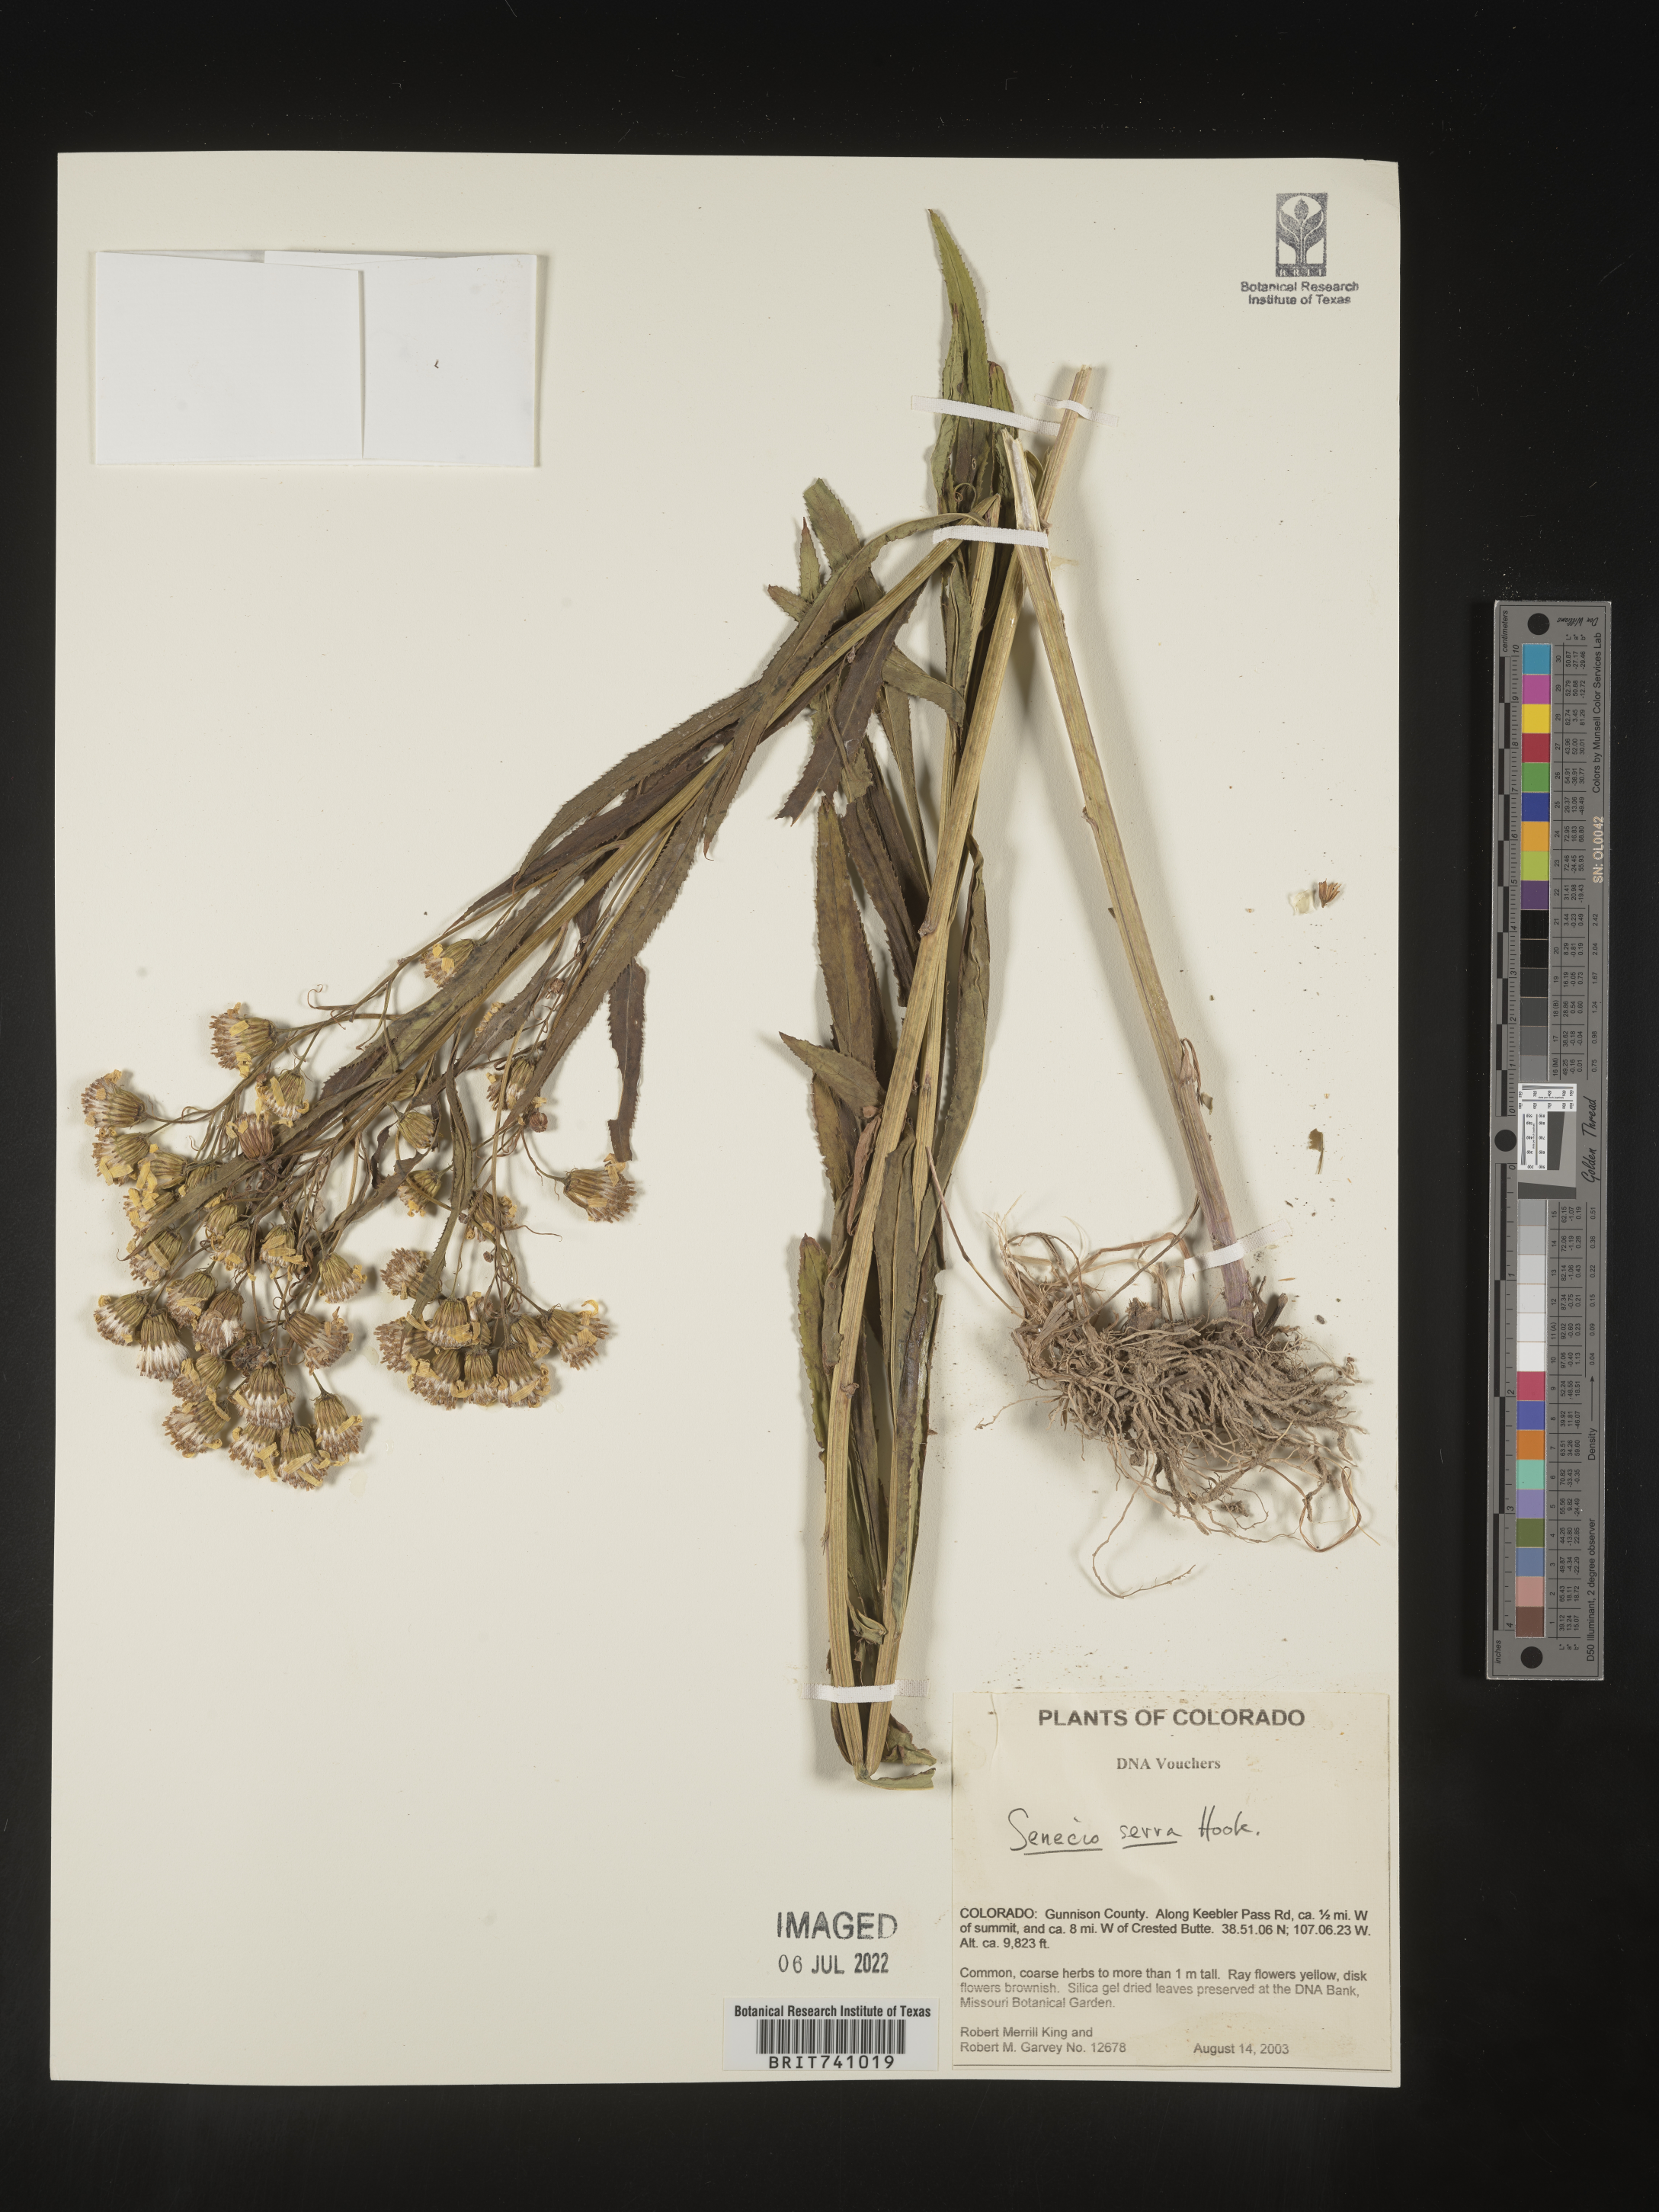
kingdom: Plantae
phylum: Tracheophyta
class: Magnoliopsida
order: Asterales
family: Asteraceae
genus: Senecio
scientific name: Senecio serra
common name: Tall ragwort
